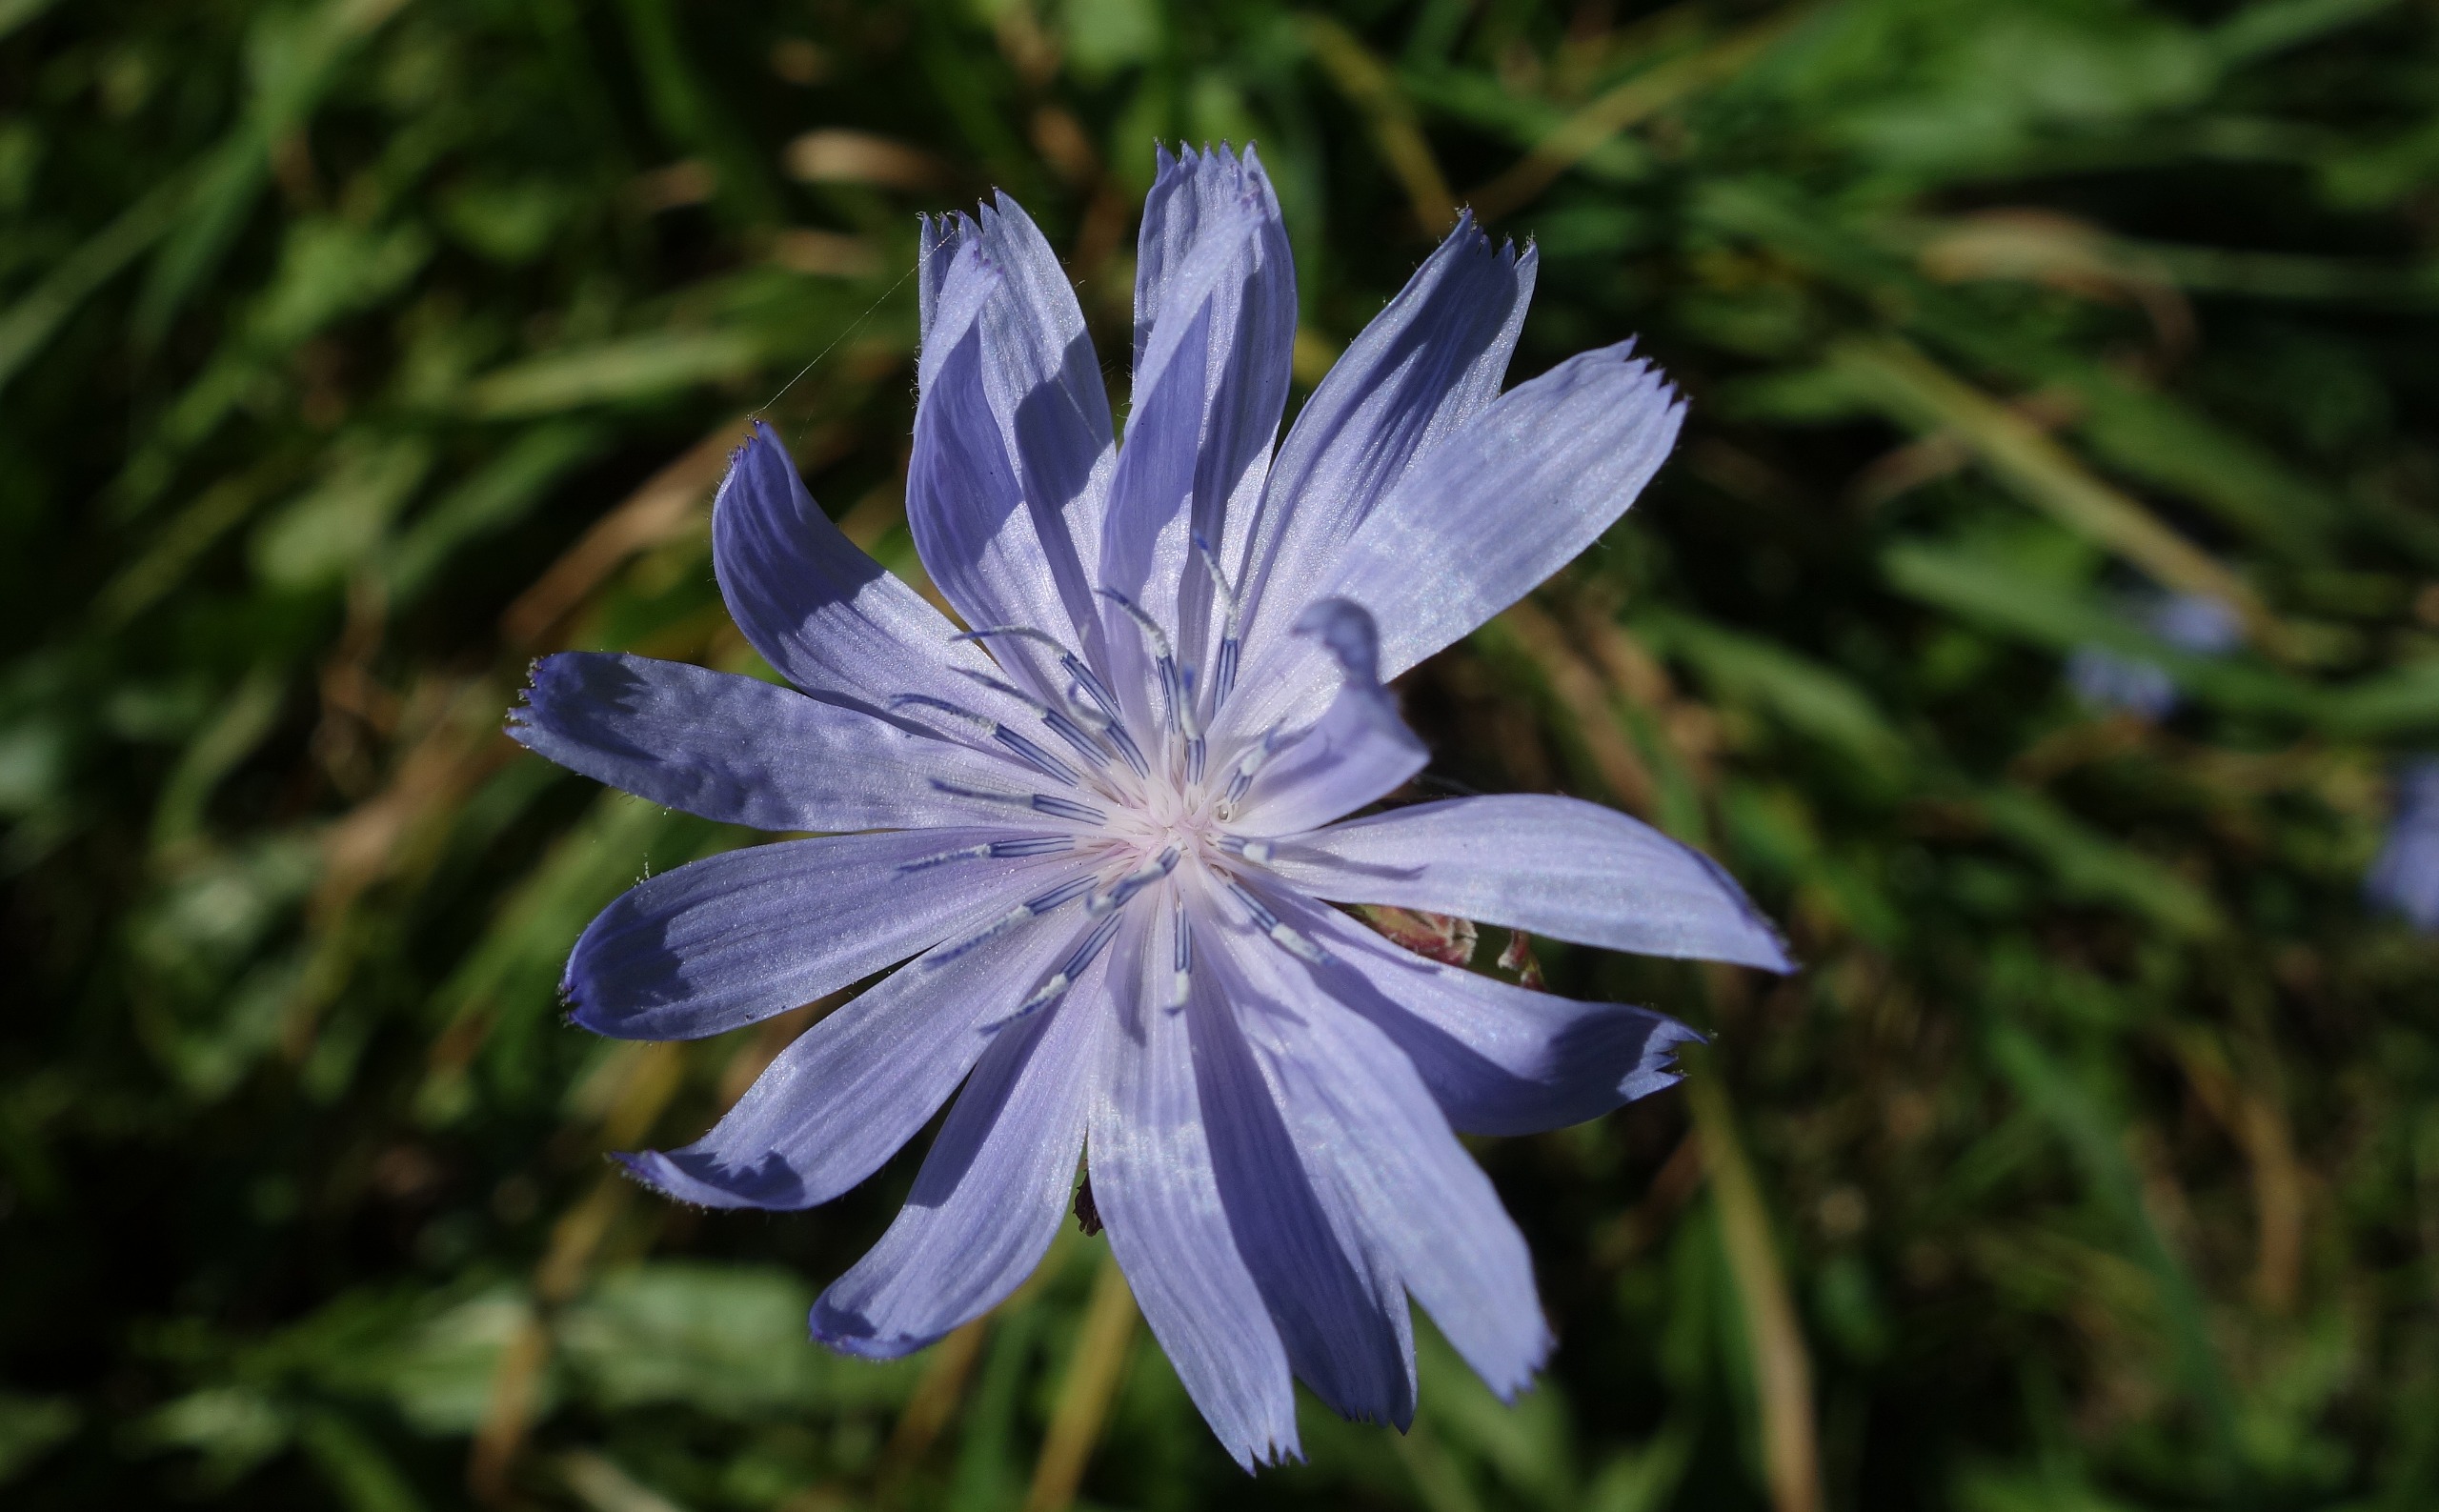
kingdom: Plantae
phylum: Tracheophyta
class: Magnoliopsida
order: Asterales
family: Asteraceae
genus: Cichorium
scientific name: Cichorium intybus
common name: Cikorie
